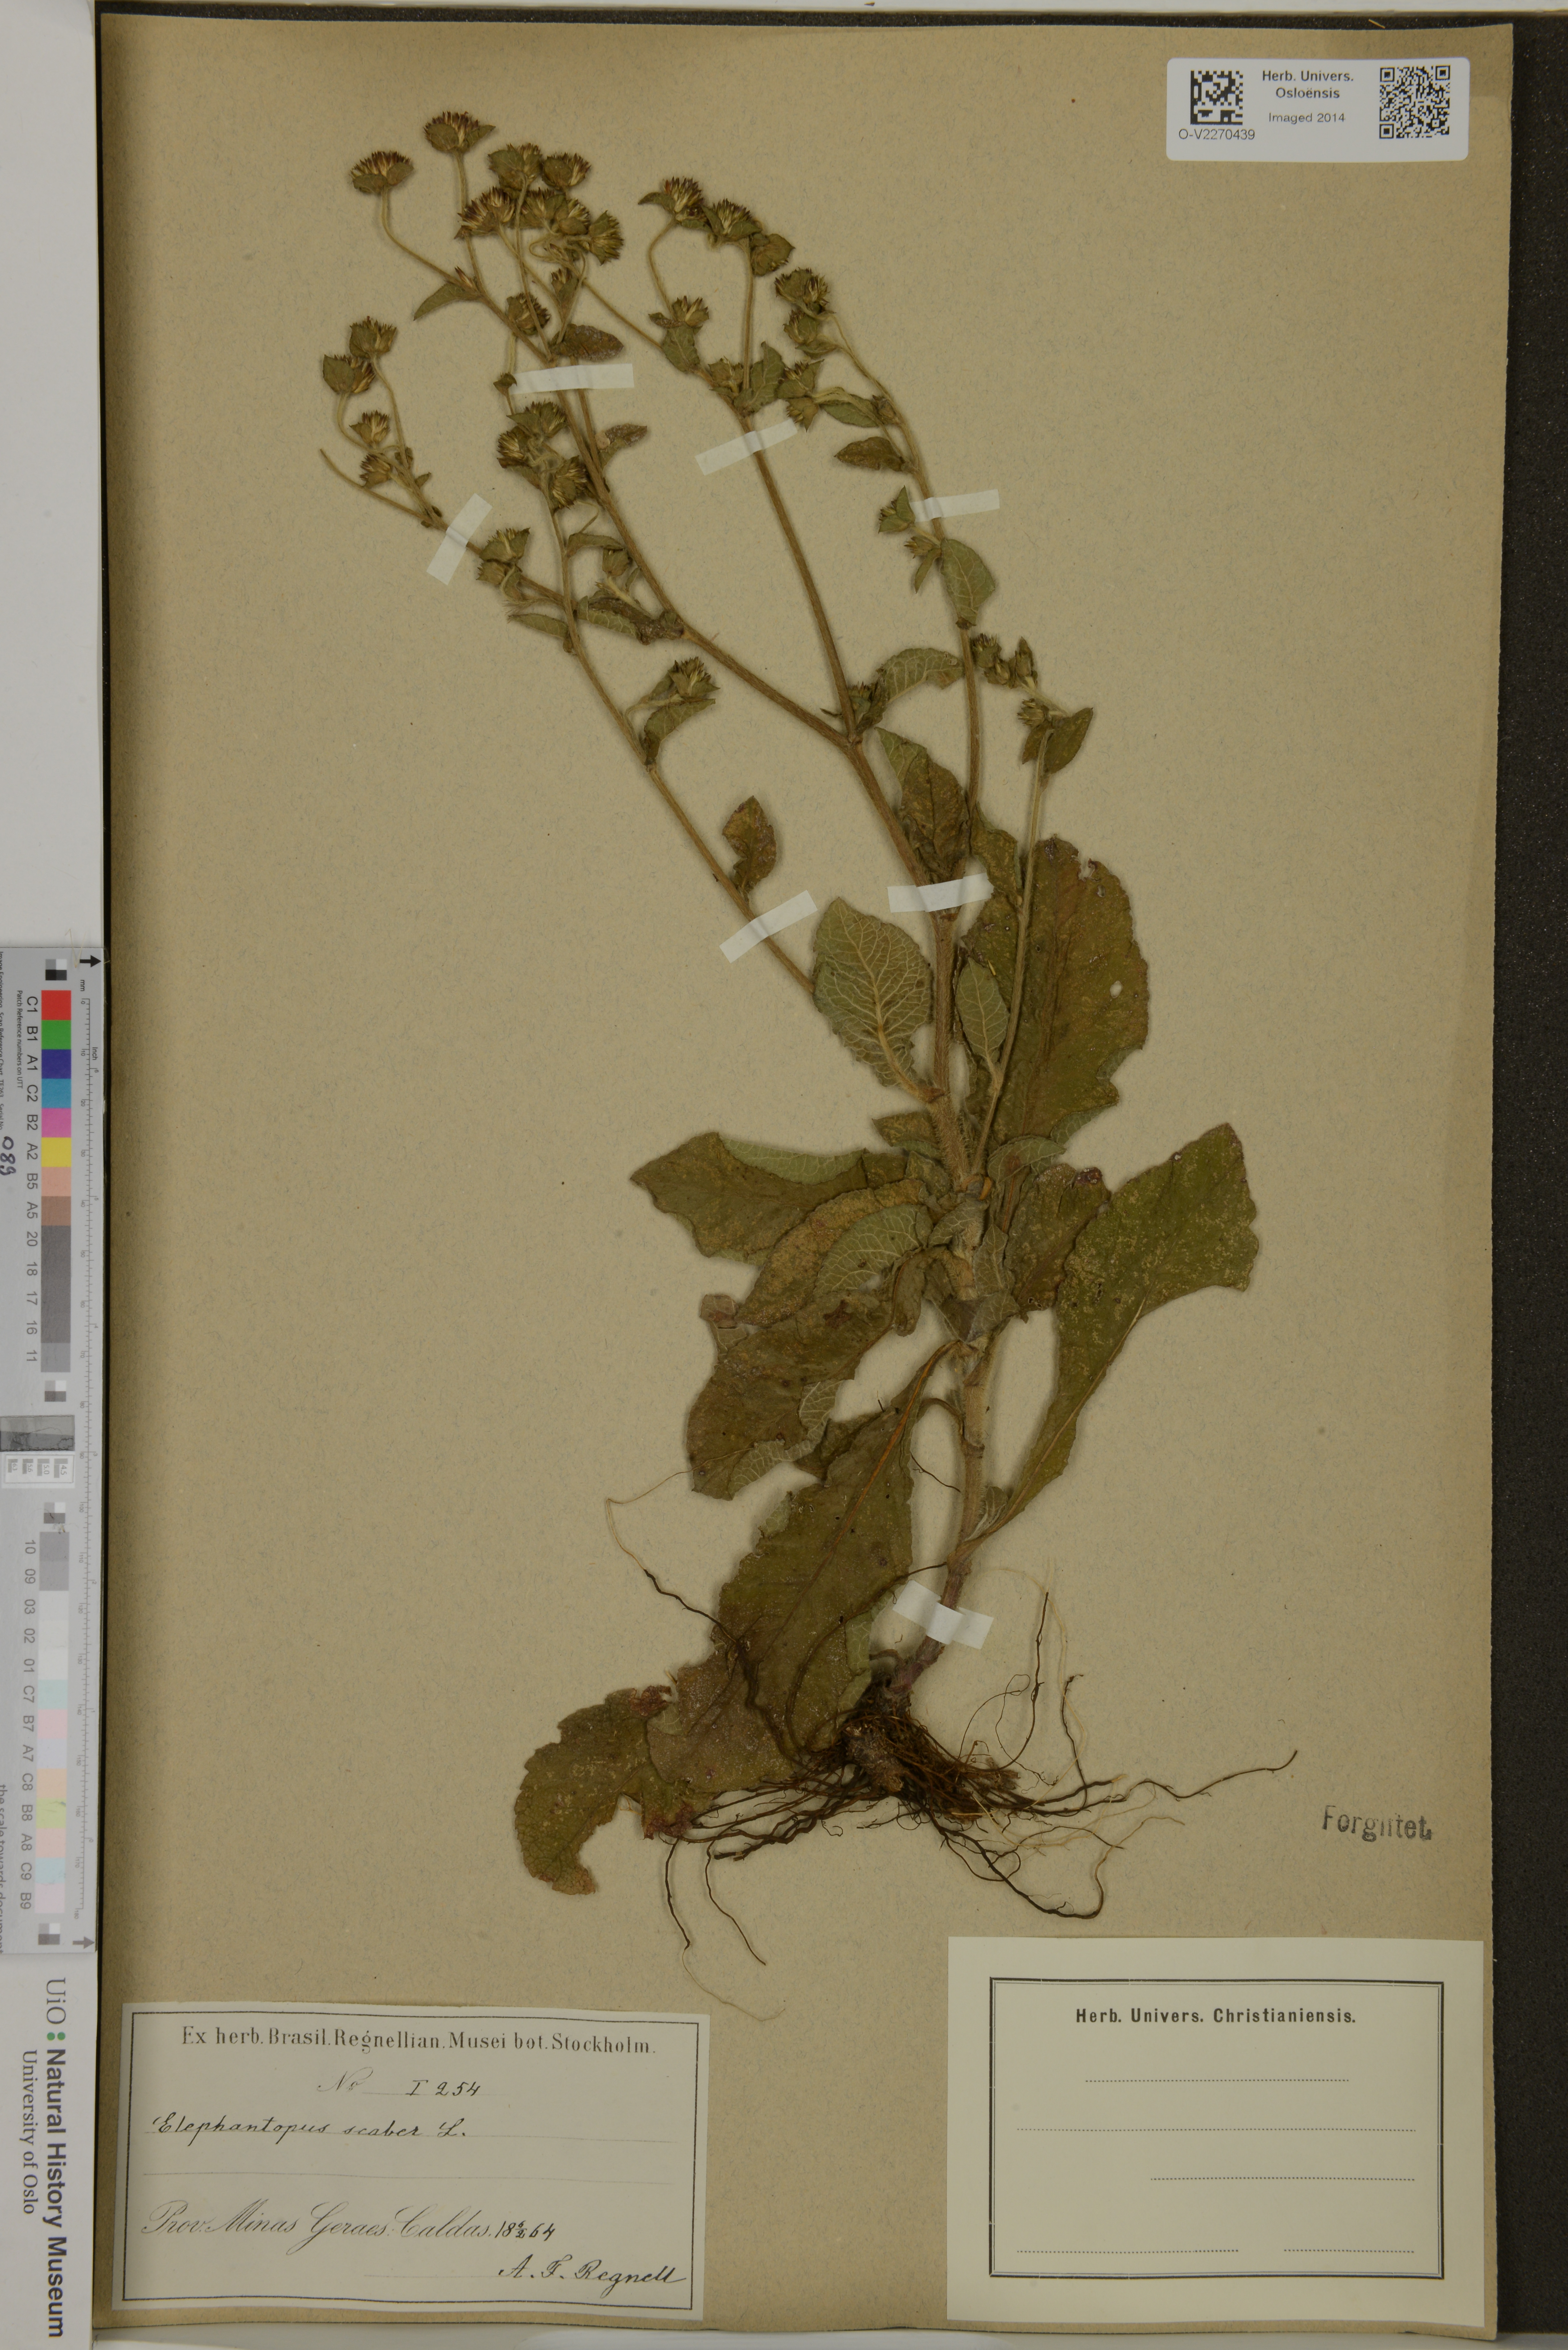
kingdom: Plantae
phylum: Tracheophyta
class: Magnoliopsida
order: Asterales
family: Asteraceae
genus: Elephantopus
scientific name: Elephantopus scaber
